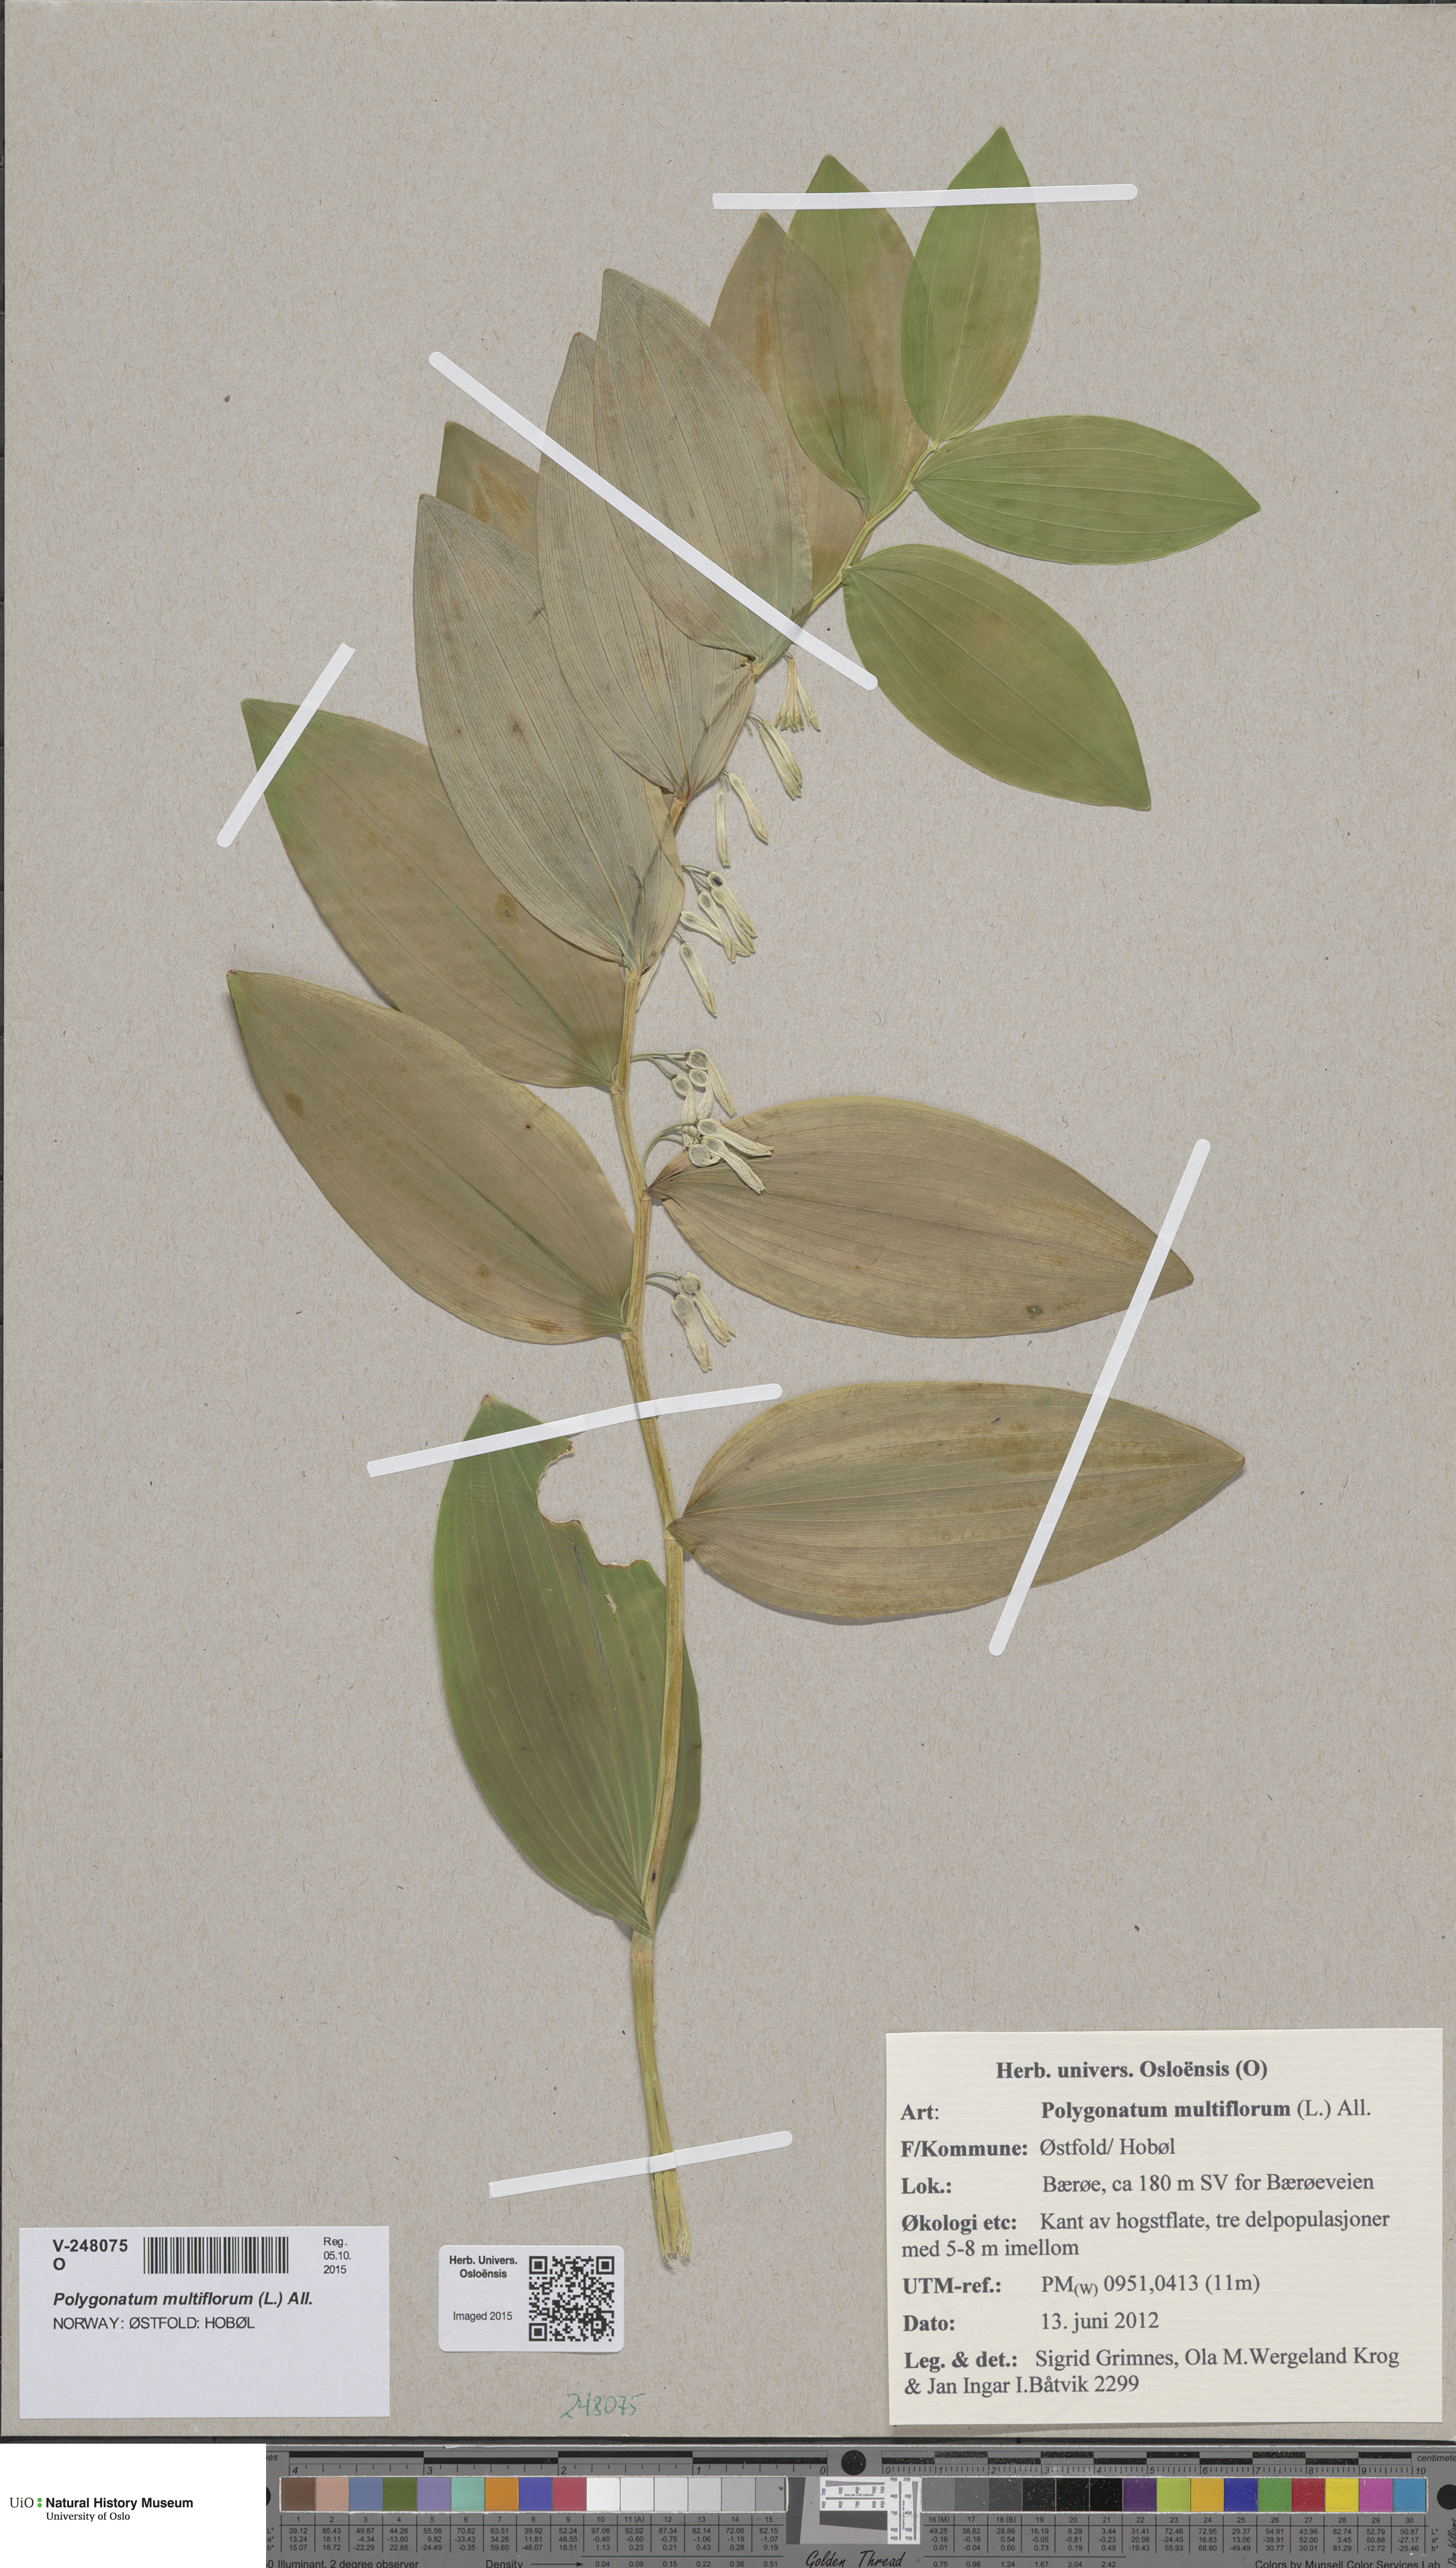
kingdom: Plantae
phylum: Tracheophyta
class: Liliopsida
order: Asparagales
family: Asparagaceae
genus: Polygonatum
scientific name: Polygonatum multiflorum
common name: Solomon's-seal
